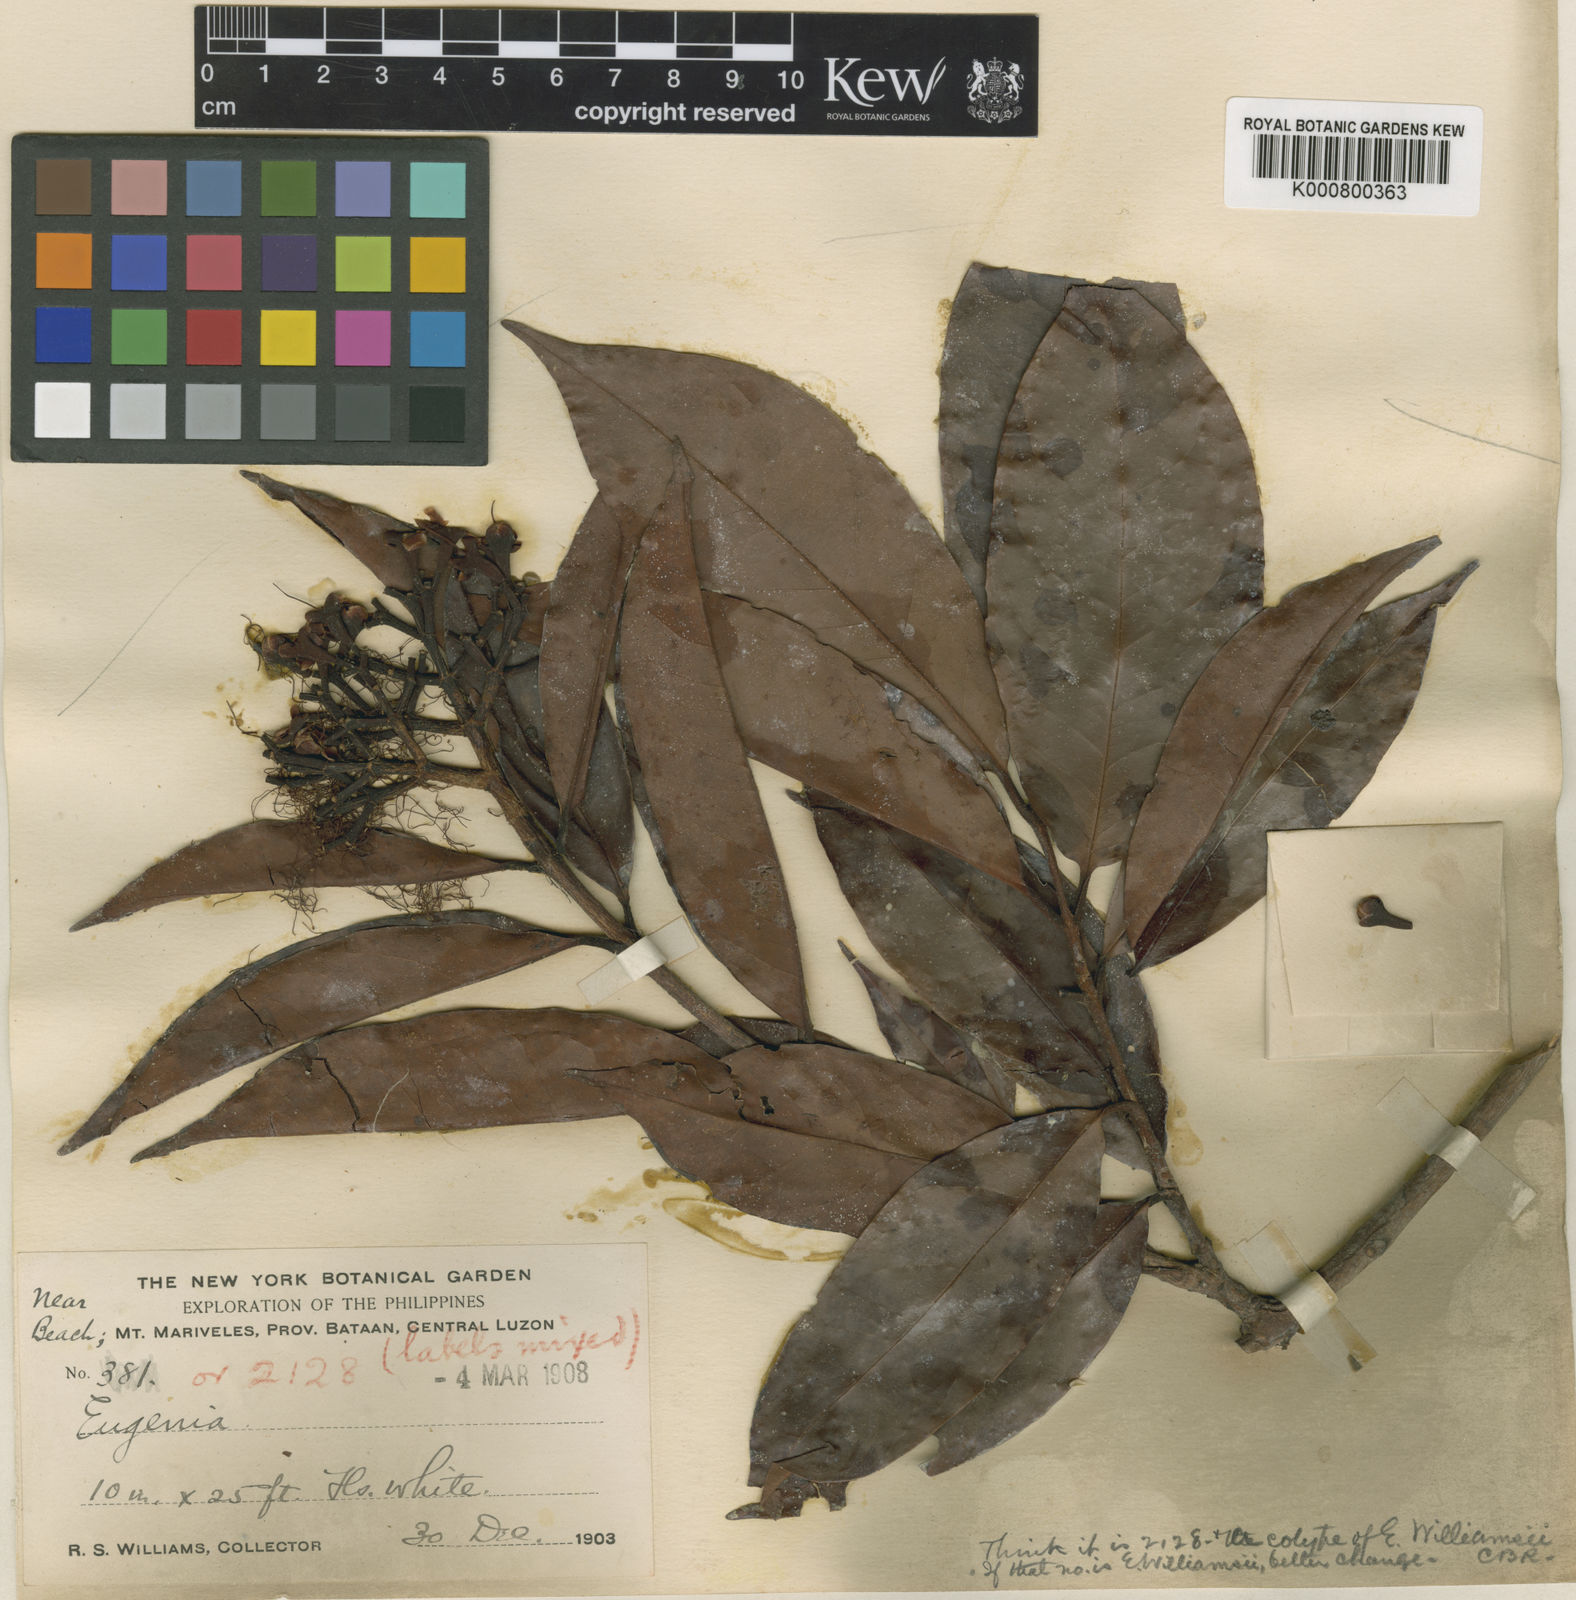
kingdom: Plantae
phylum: Tracheophyta
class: Magnoliopsida
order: Myrtales
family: Myrtaceae
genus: Syzygium
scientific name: Syzygium williamsii
